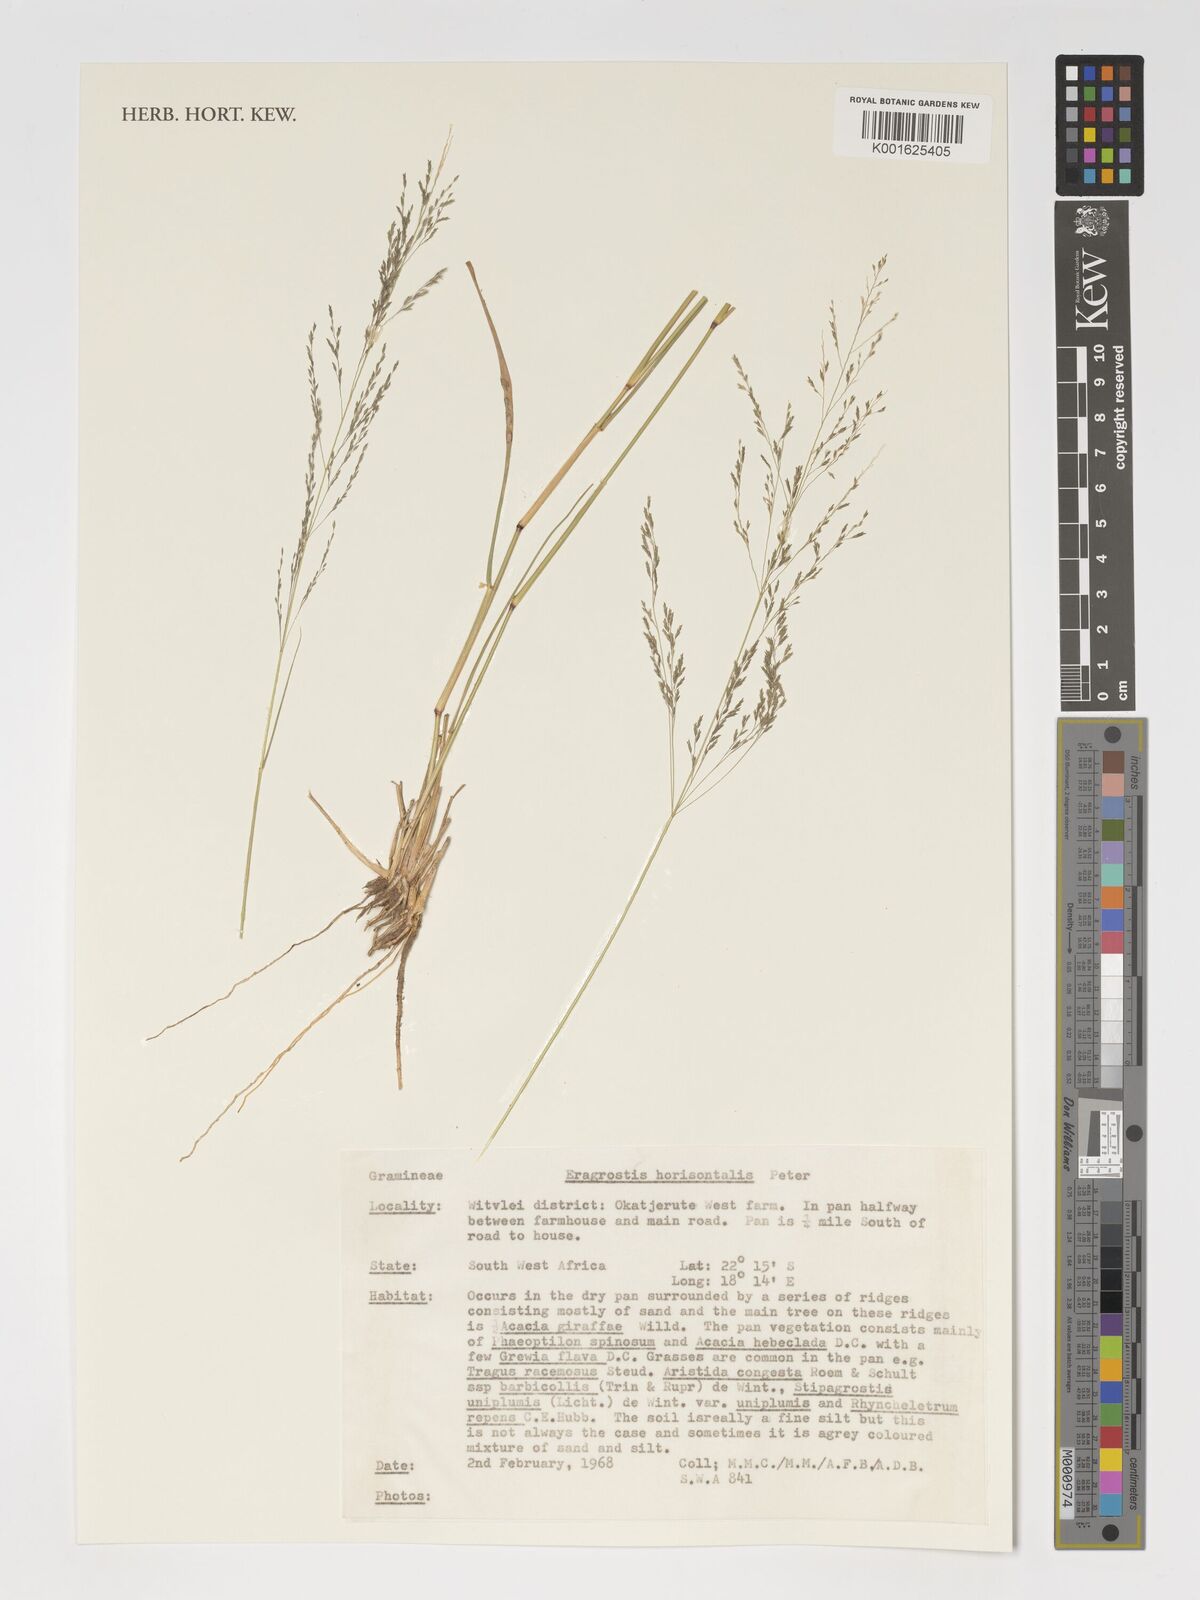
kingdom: Plantae
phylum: Tracheophyta
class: Liliopsida
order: Poales
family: Poaceae
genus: Eragrostis
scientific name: Eragrostis cylindriflora
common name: Cylinderflower lovegrass
